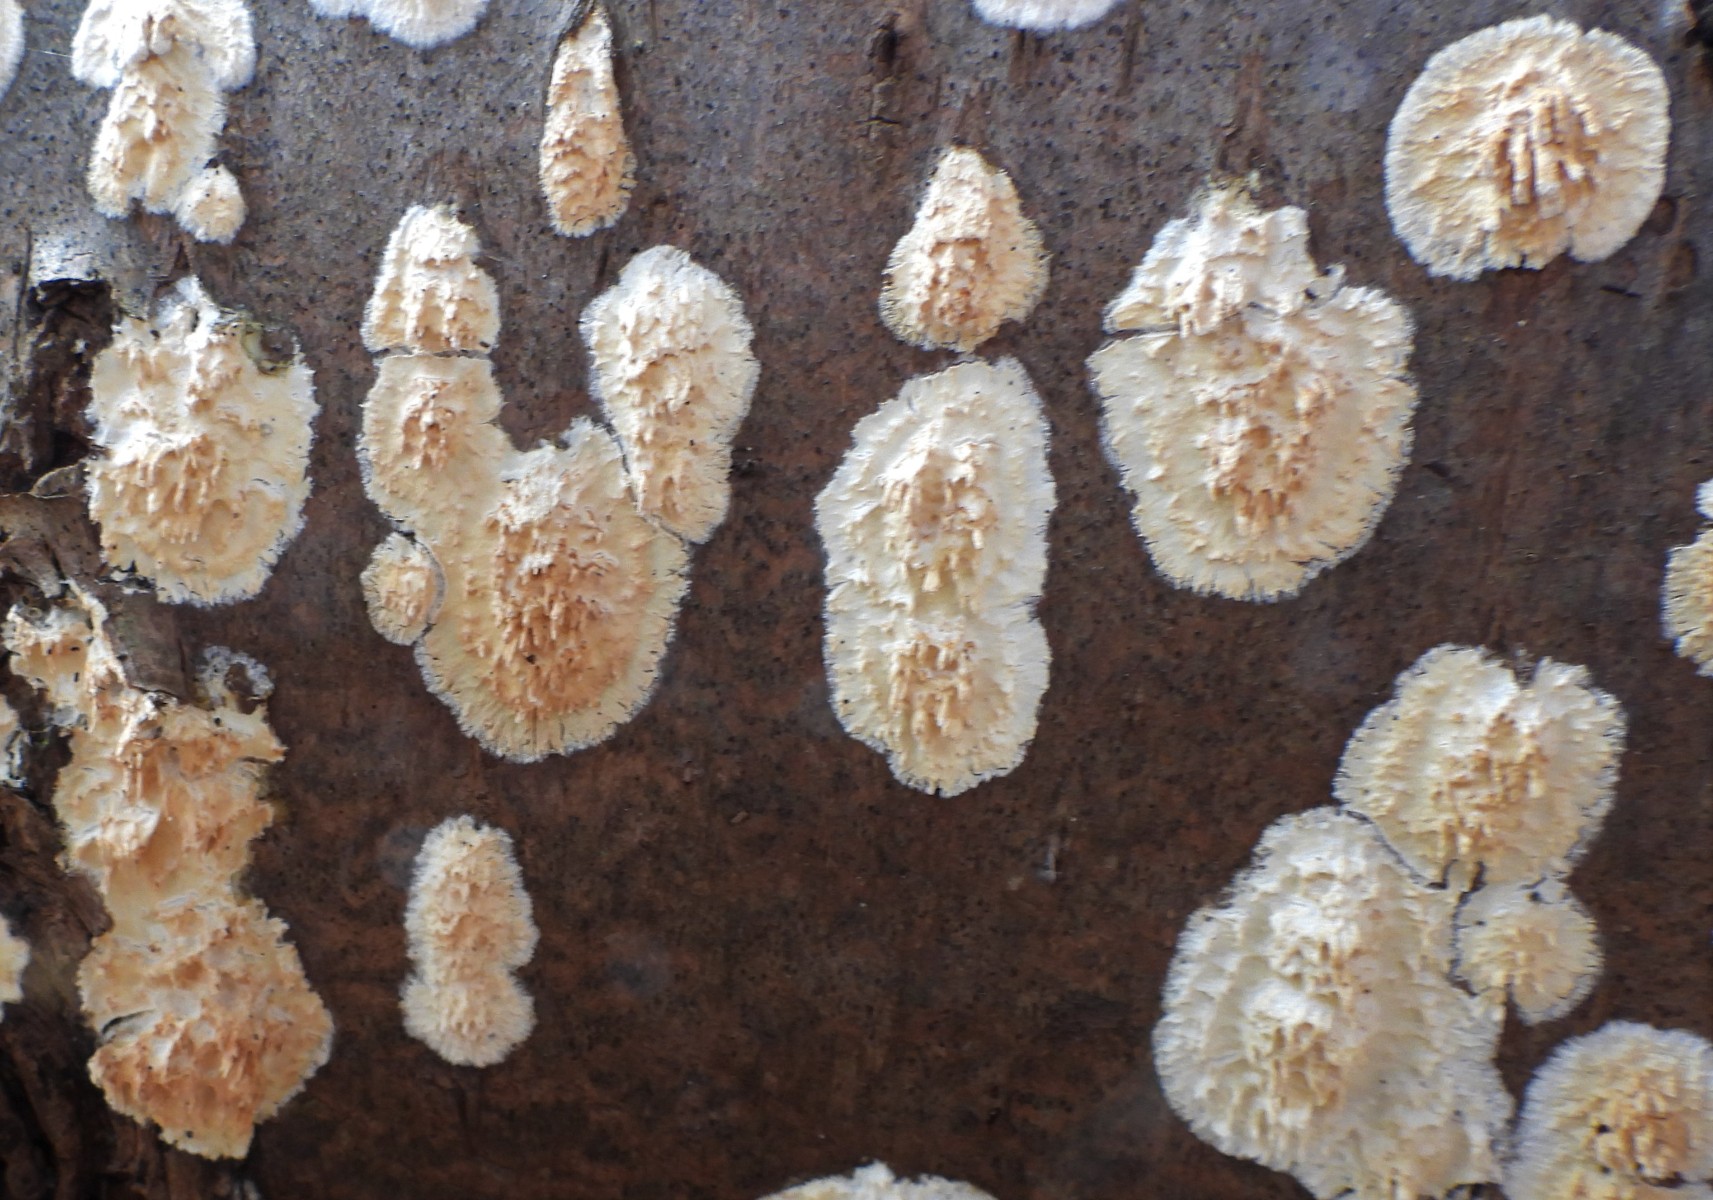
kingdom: Fungi
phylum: Basidiomycota
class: Agaricomycetes
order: Hymenochaetales
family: Schizoporaceae
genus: Xylodon
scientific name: Xylodon radula
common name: grovtandet kalkskind
